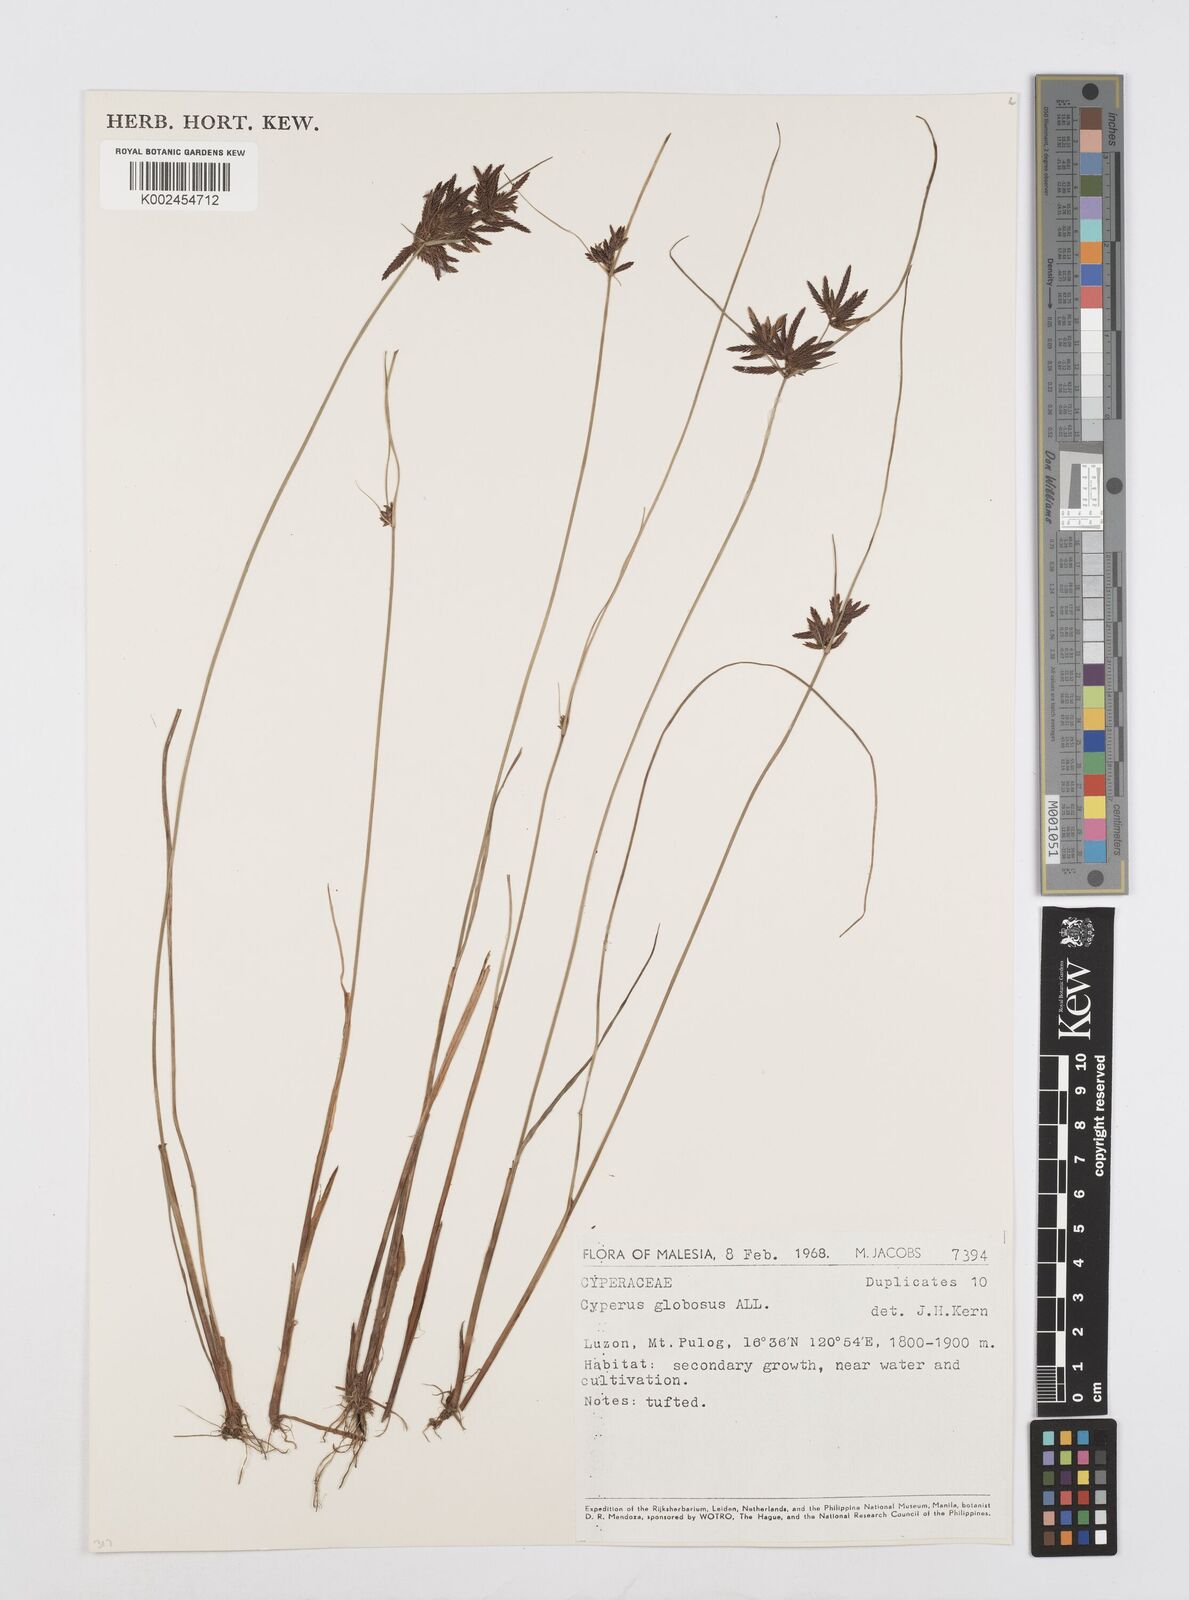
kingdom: Plantae
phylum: Tracheophyta
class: Liliopsida
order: Poales
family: Cyperaceae
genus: Cyperus
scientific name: Cyperus flavidus
